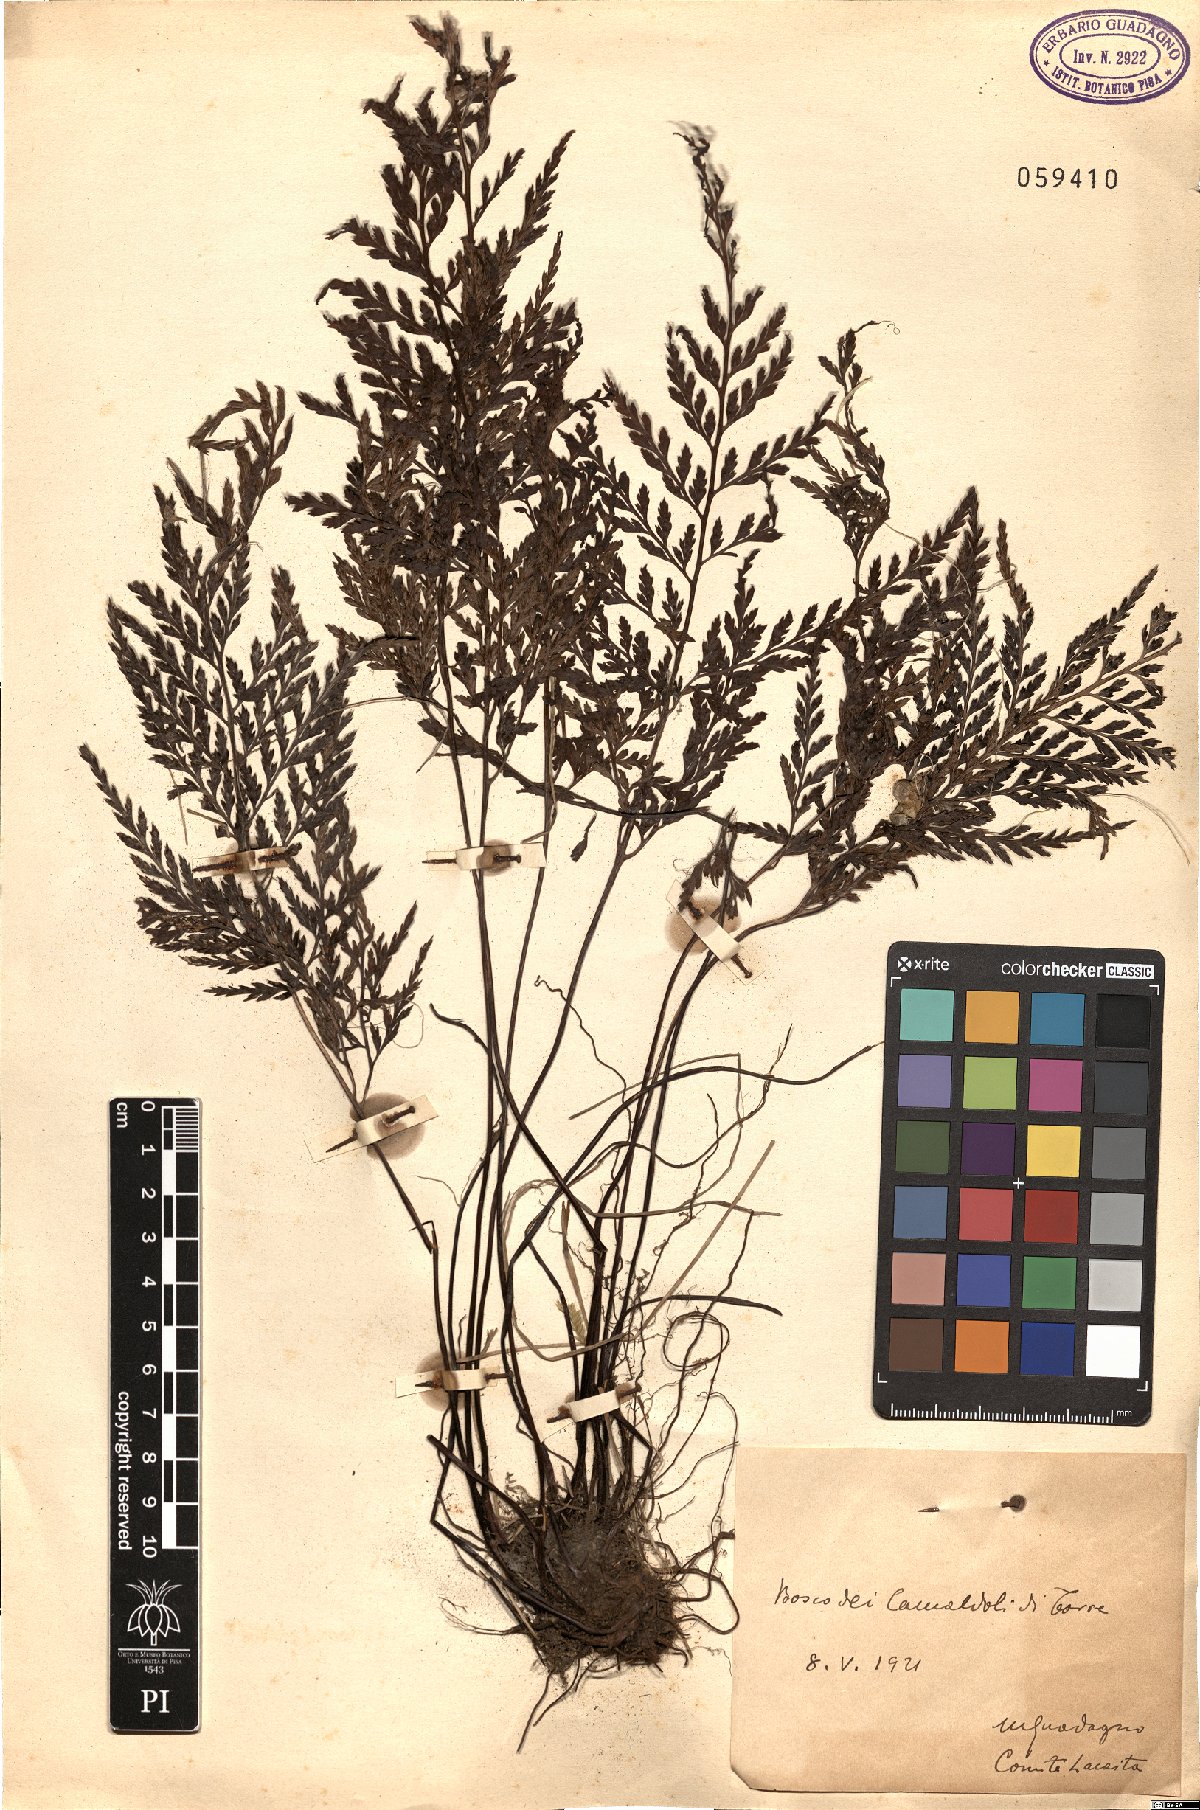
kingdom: Plantae
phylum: Tracheophyta
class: Polypodiopsida
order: Polypodiales
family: Aspleniaceae
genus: Asplenium
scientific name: Asplenium
